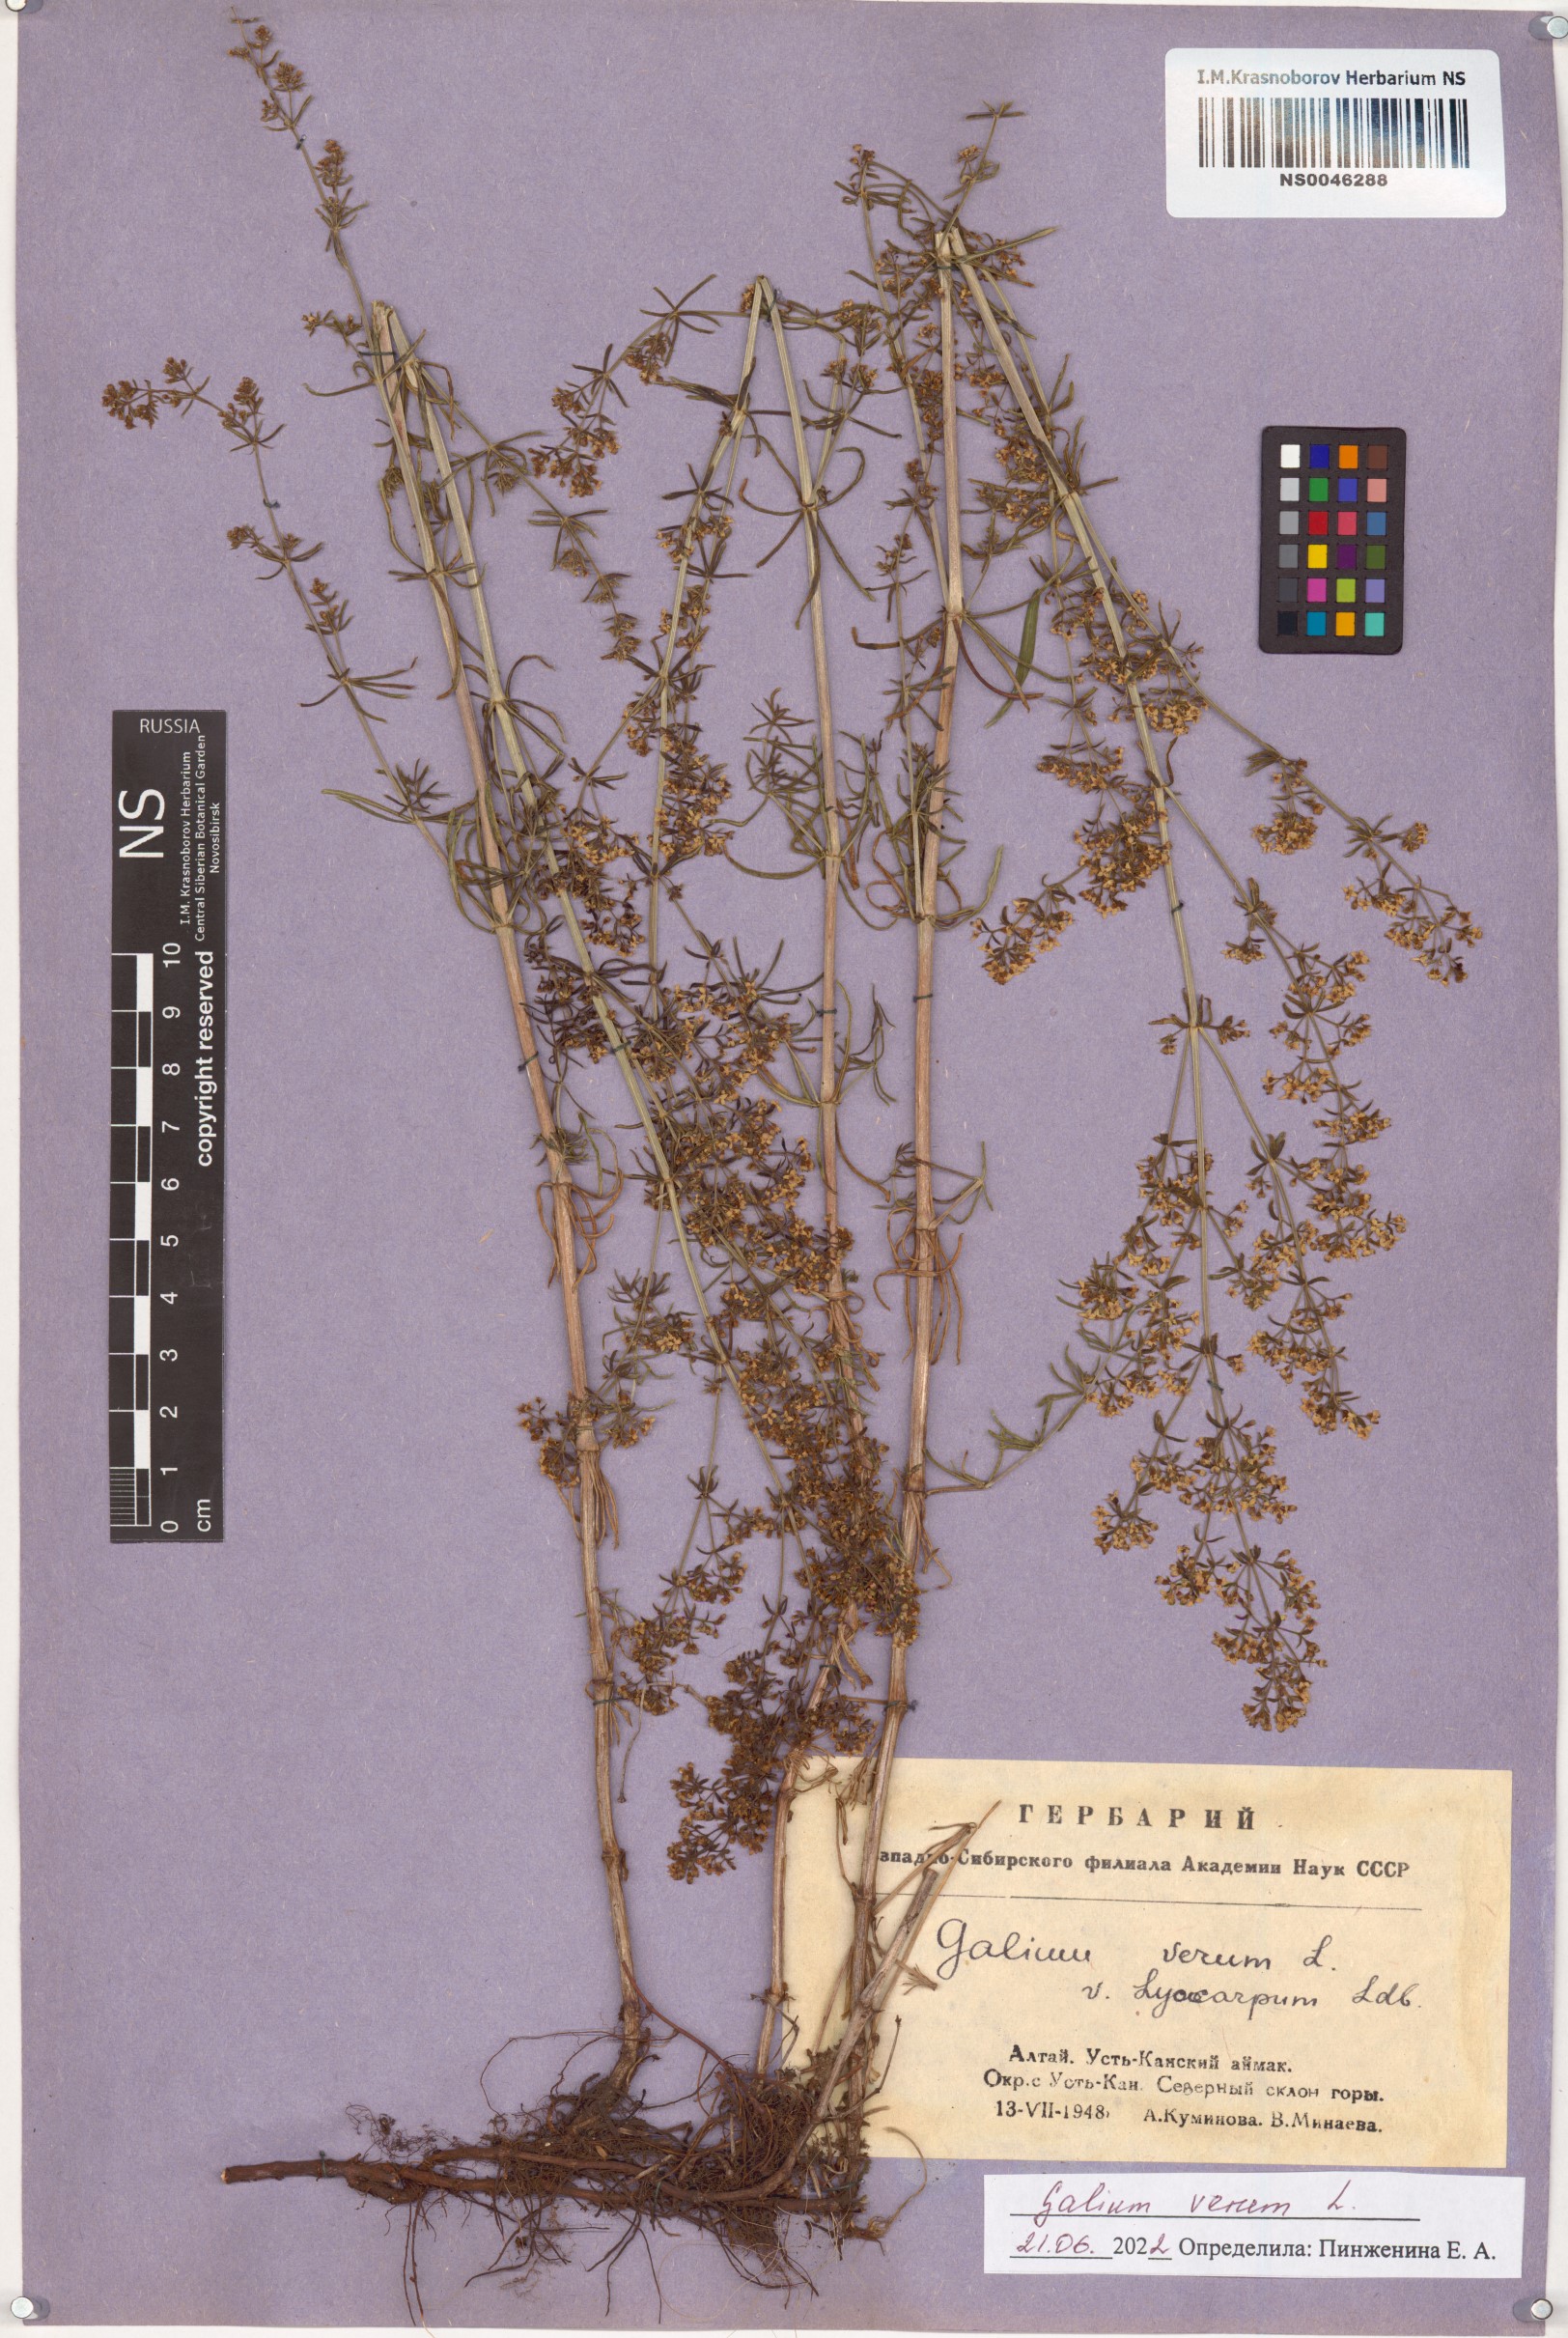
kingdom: Plantae
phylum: Tracheophyta
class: Magnoliopsida
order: Gentianales
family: Rubiaceae
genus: Galium
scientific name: Galium verum
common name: Lady's bedstraw
